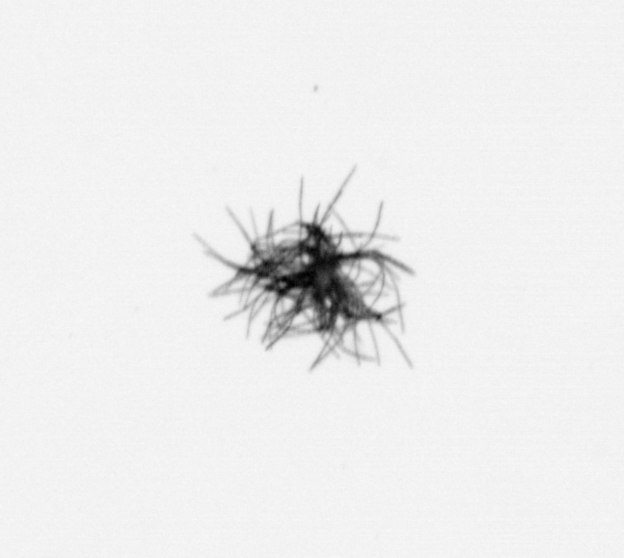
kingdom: Bacteria
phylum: Cyanobacteria
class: Cyanobacteriia
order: Cyanobacteriales
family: Microcoleaceae
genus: Trichodesmium
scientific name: Trichodesmium
